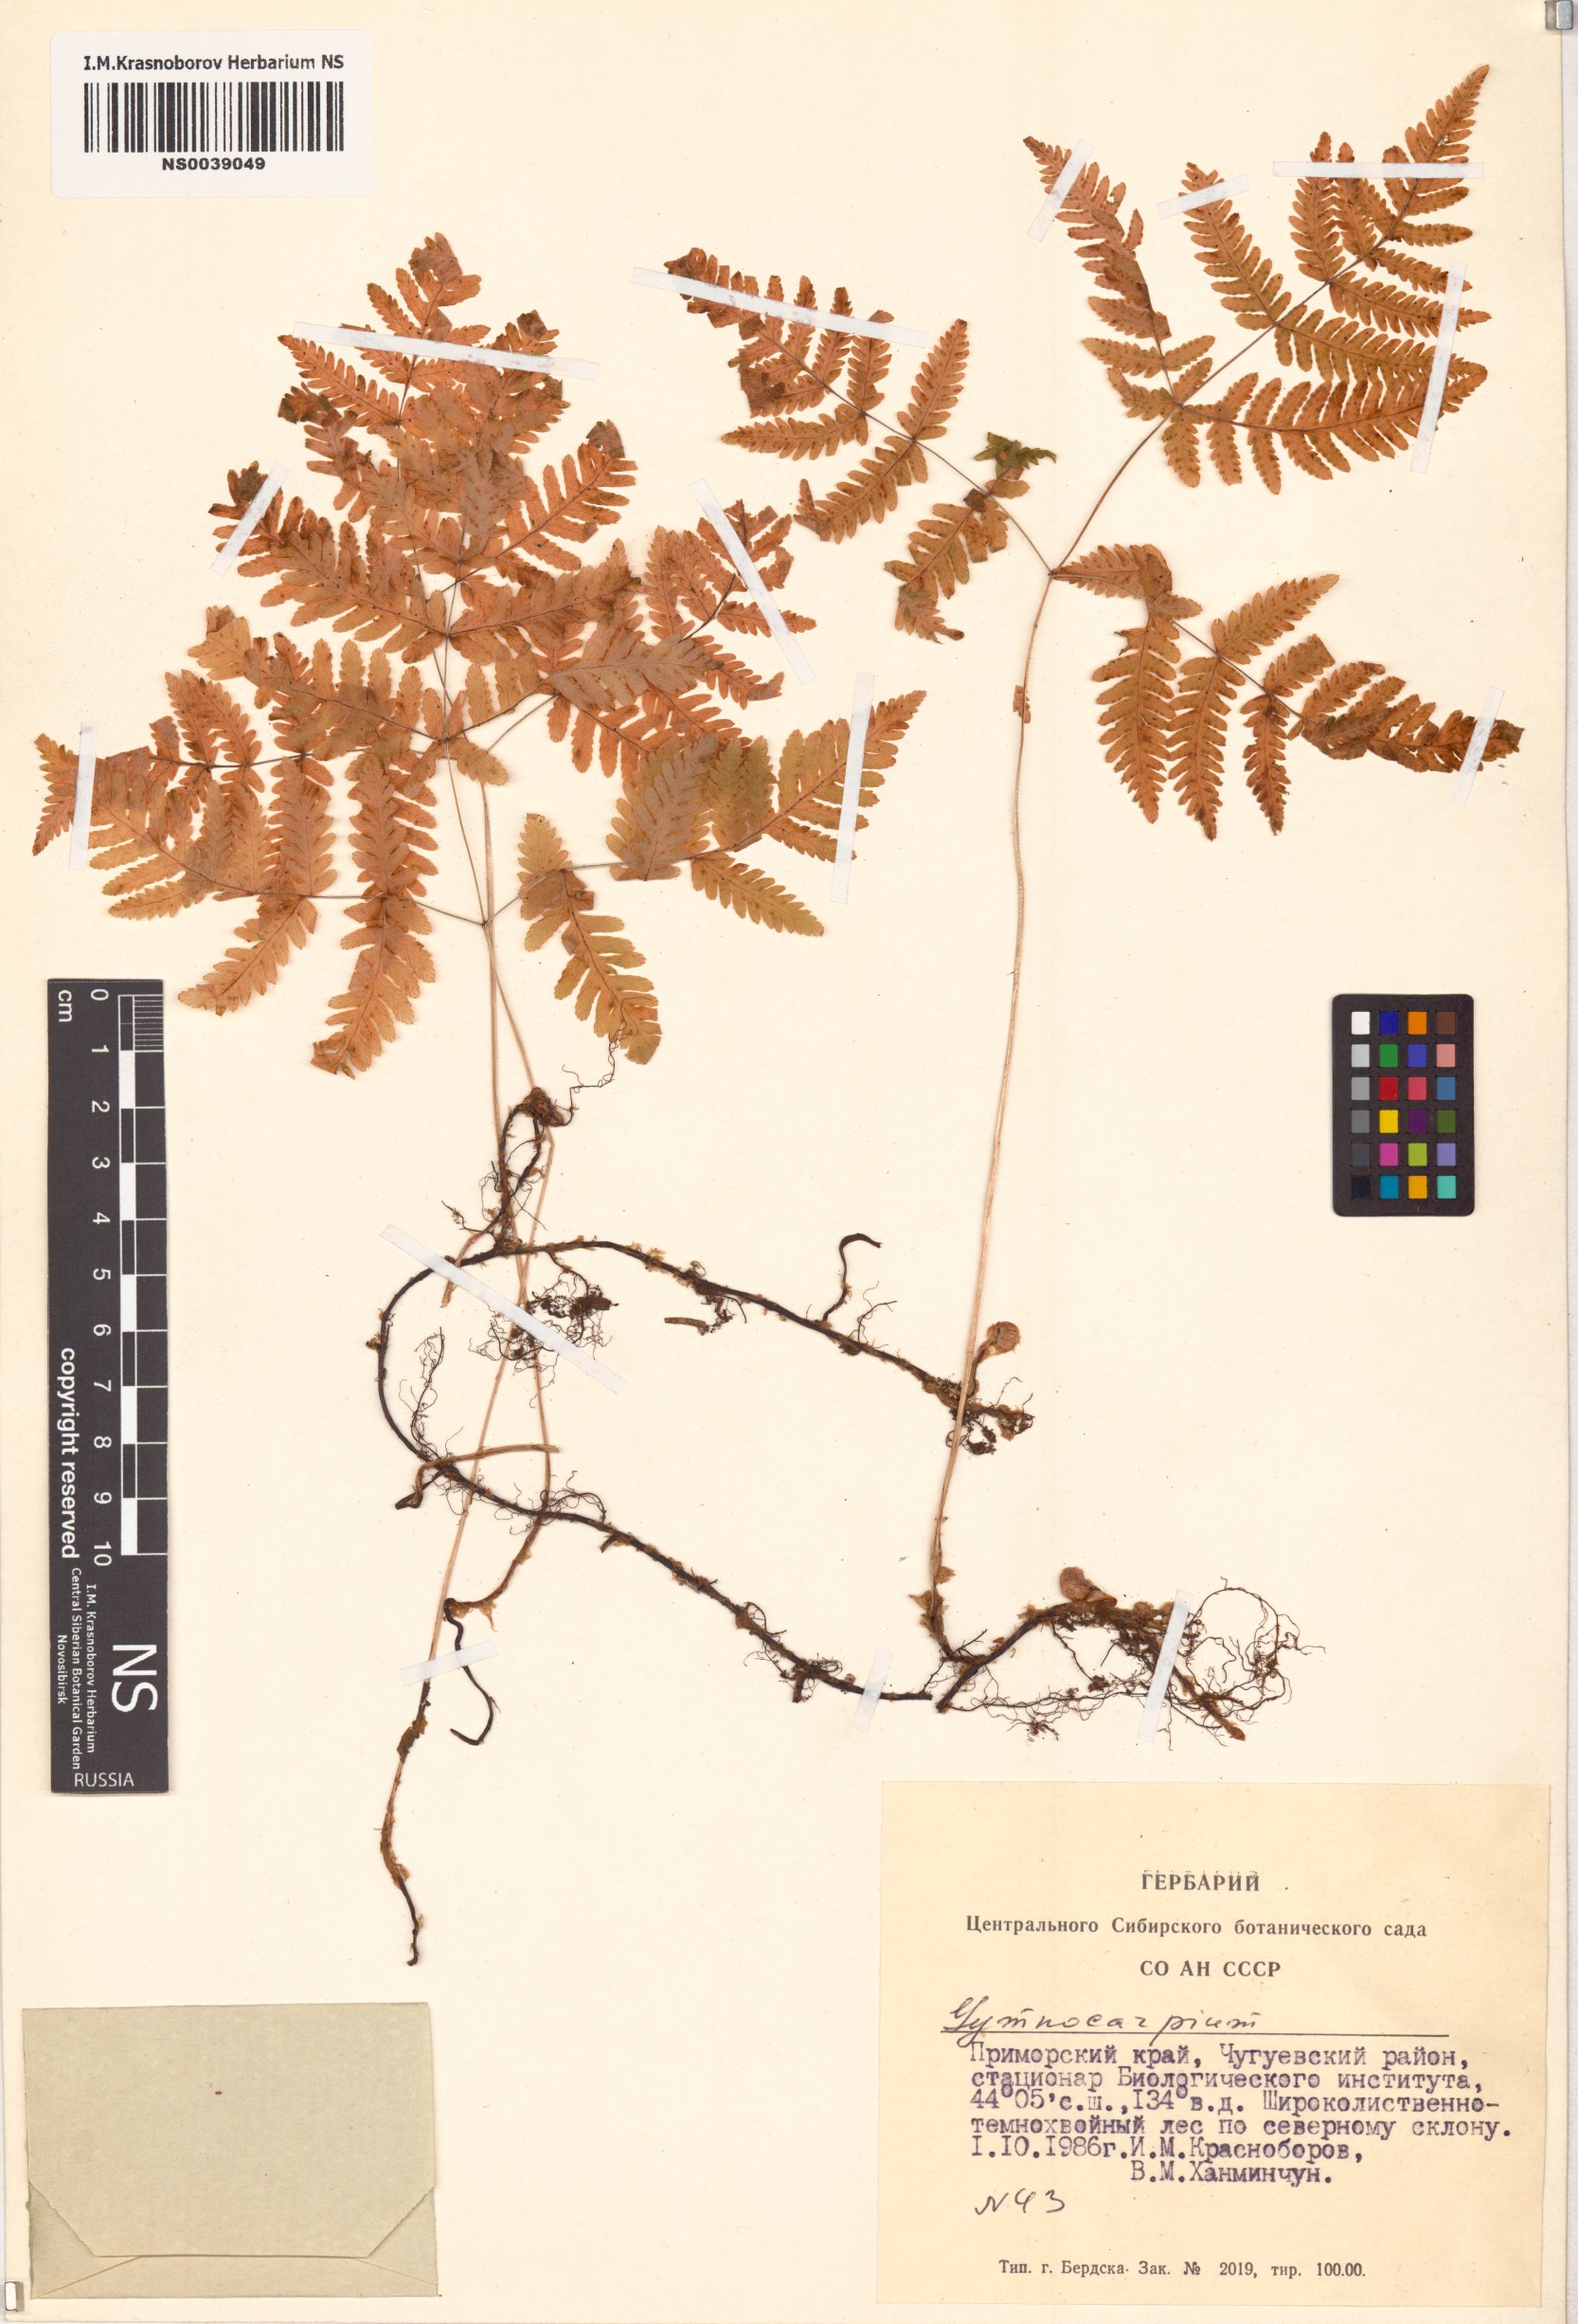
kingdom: Plantae
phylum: Tracheophyta
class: Polypodiopsida
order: Polypodiales
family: Cystopteridaceae
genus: Gymnocarpium
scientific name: Gymnocarpium robertianum
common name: Limestone fern
